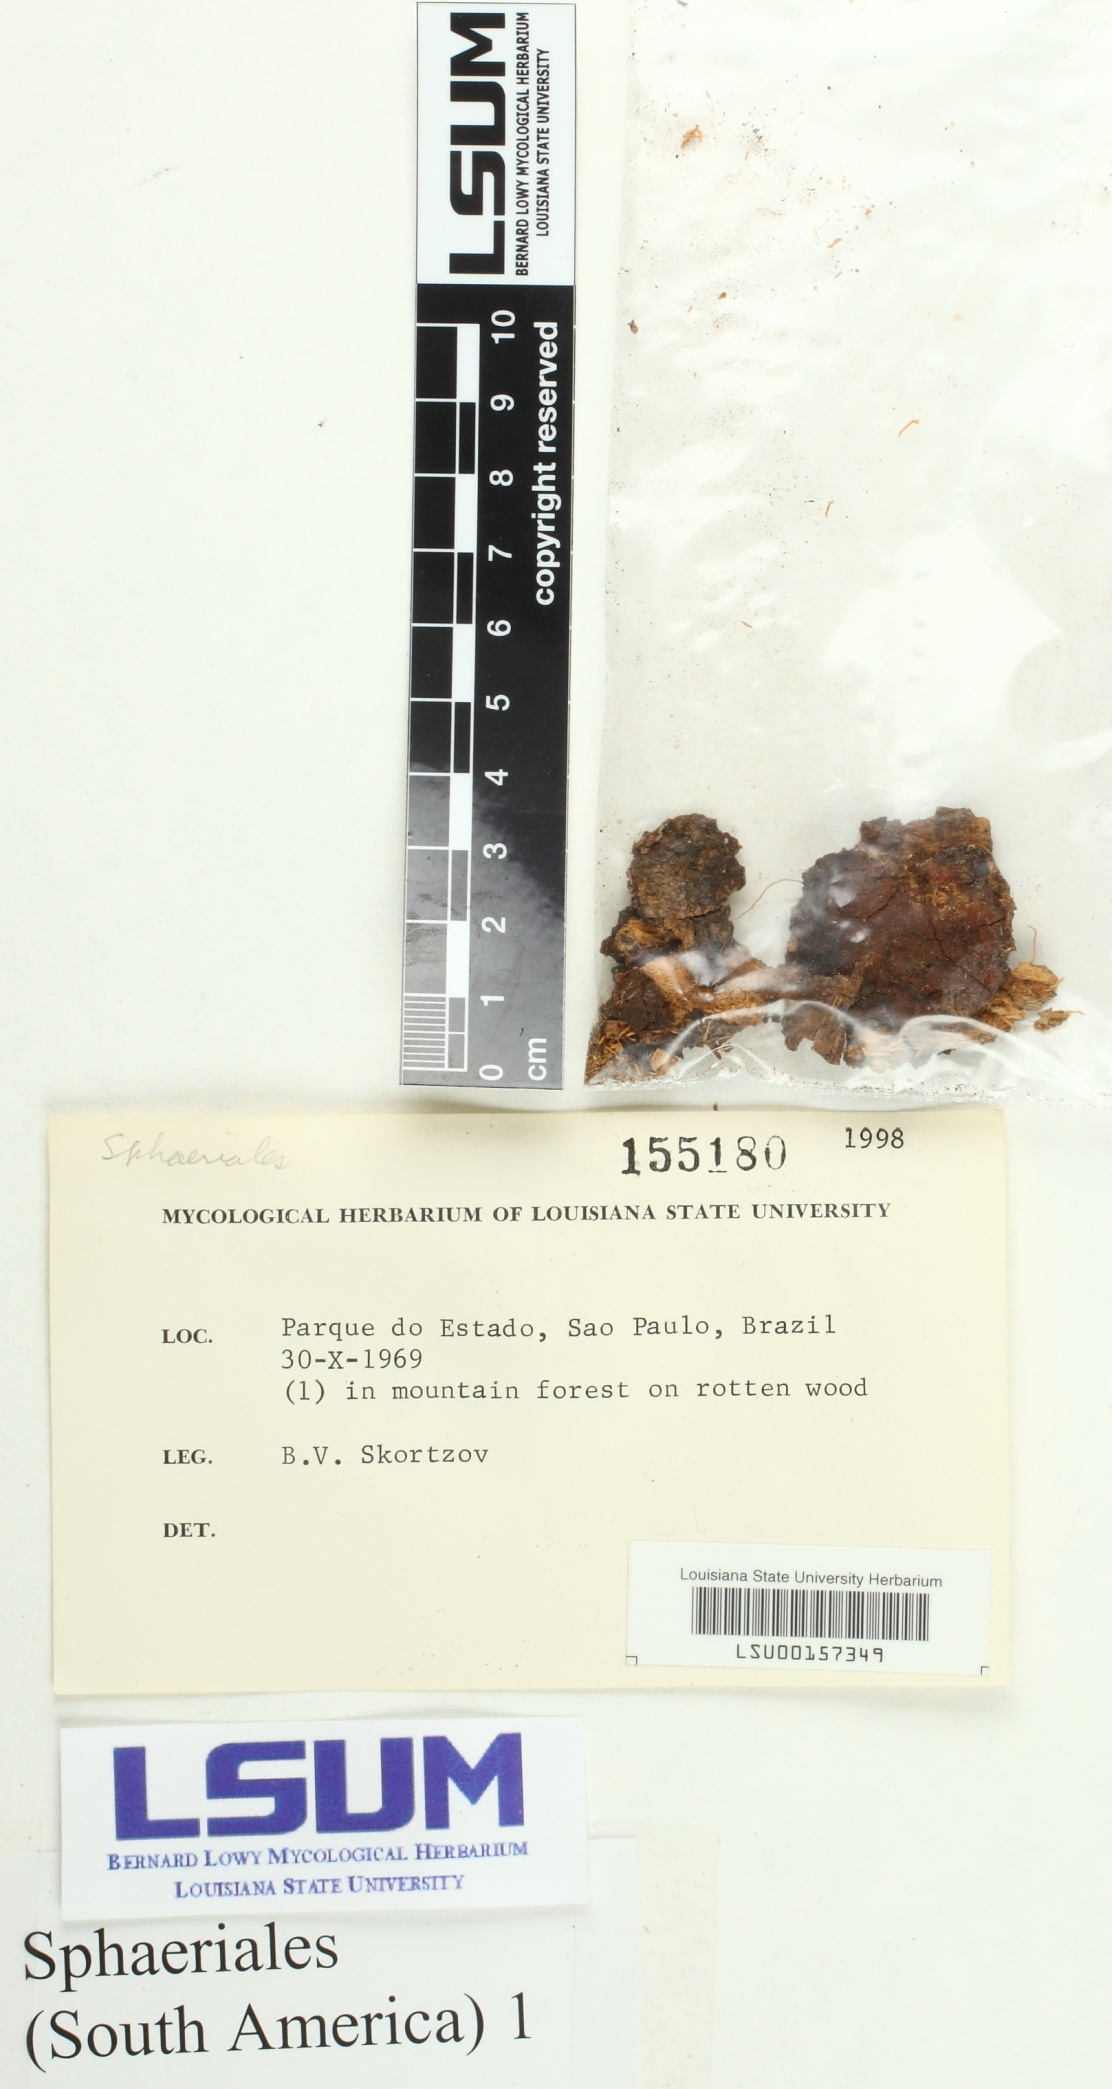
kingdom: Fungi
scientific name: Fungi
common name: Fungi
